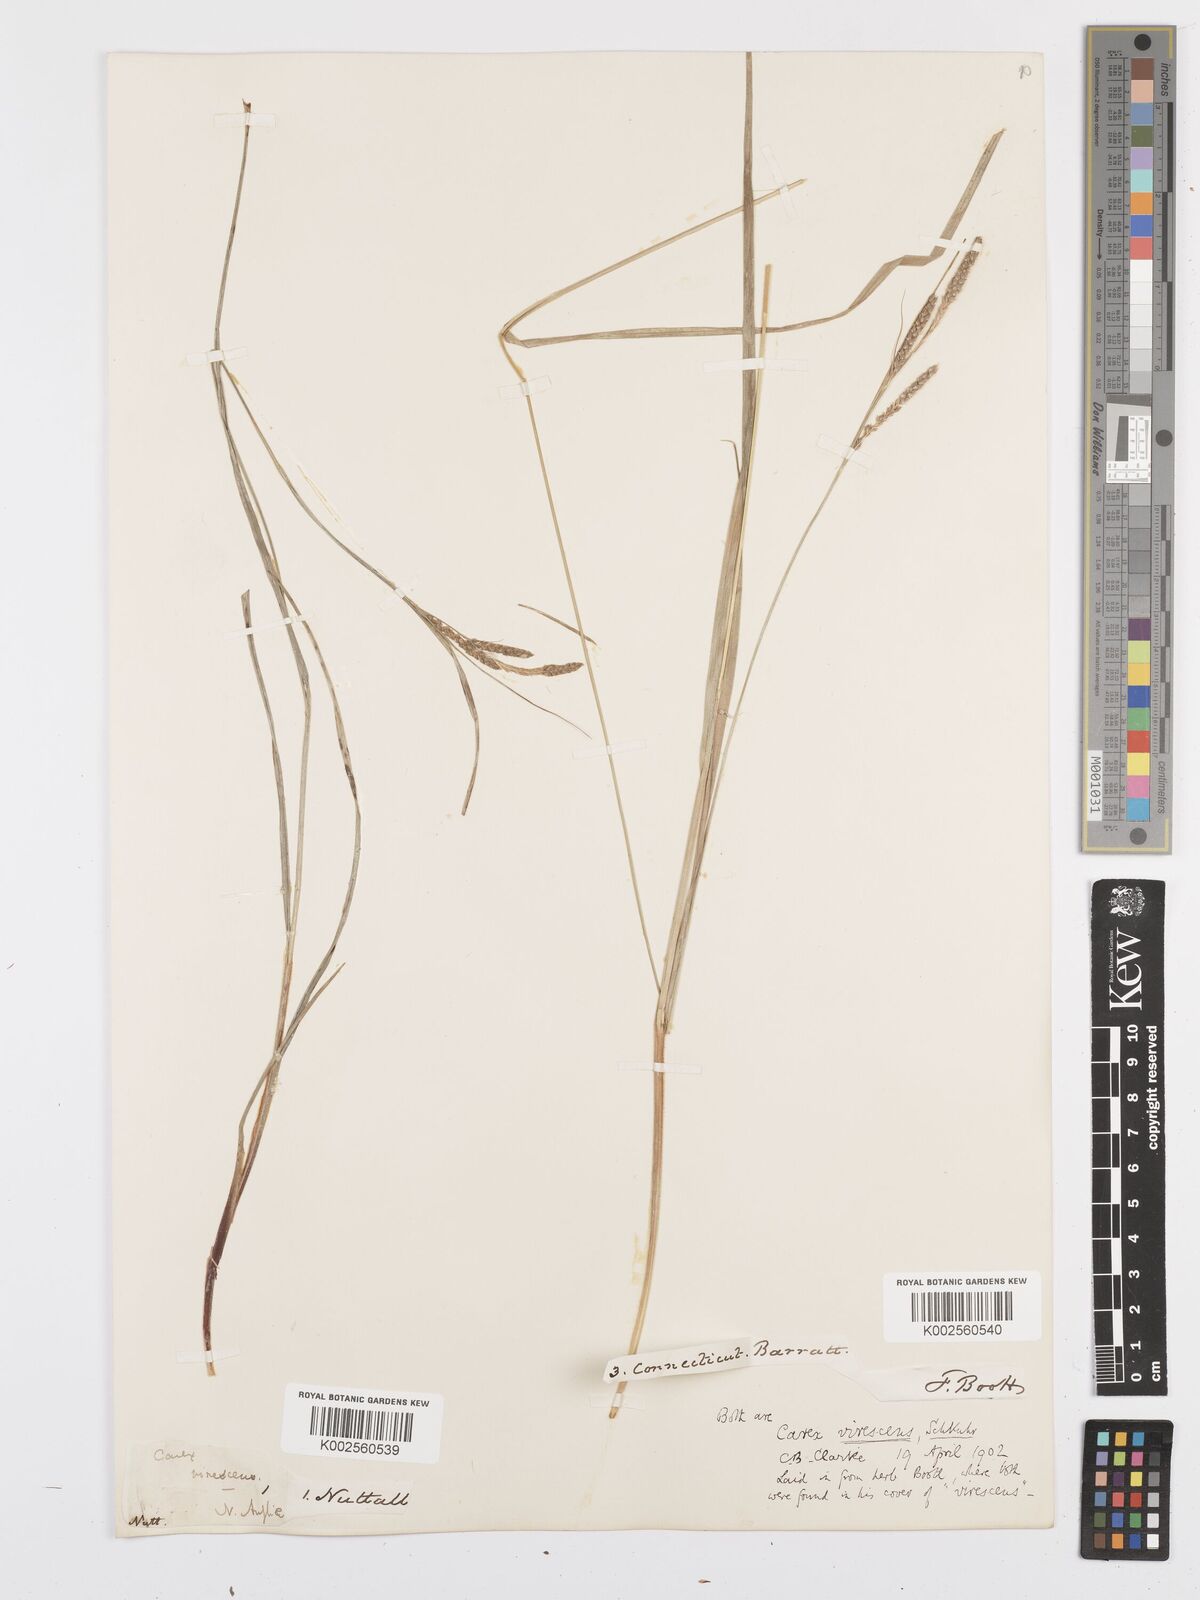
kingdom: Plantae
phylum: Tracheophyta
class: Liliopsida
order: Poales
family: Cyperaceae
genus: Carex
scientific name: Carex virescens
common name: Ribbed sedge
